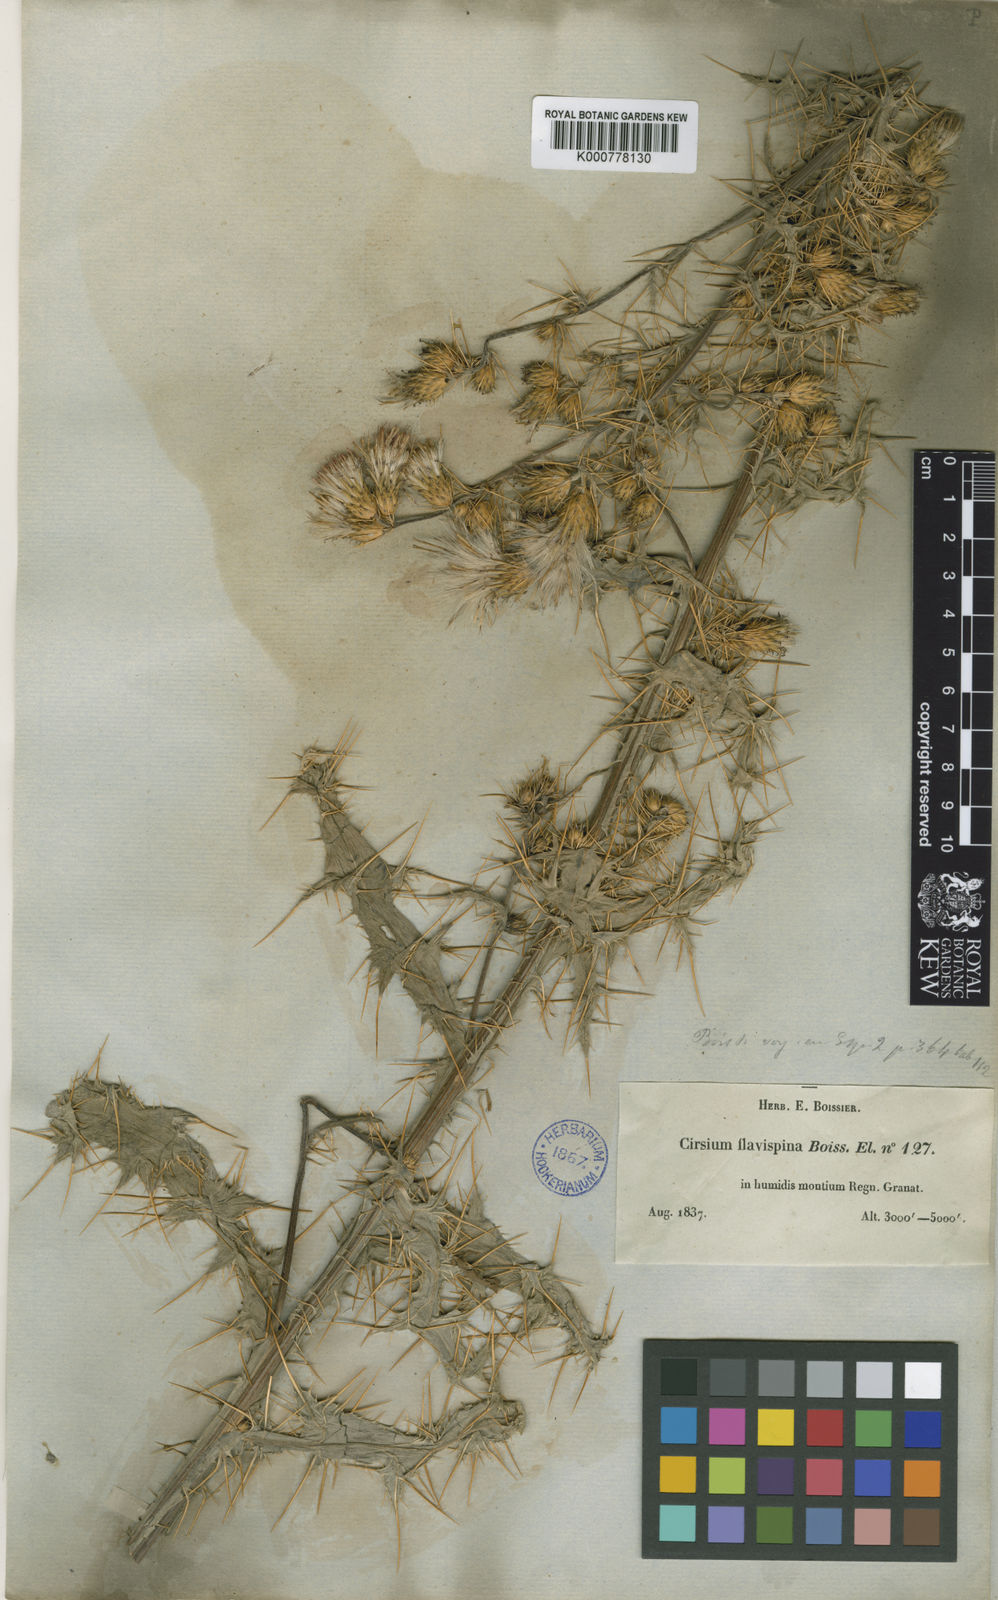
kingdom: Plantae
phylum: Tracheophyta
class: Magnoliopsida
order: Asterales
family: Asteraceae
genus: Cirsium
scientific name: Cirsium
